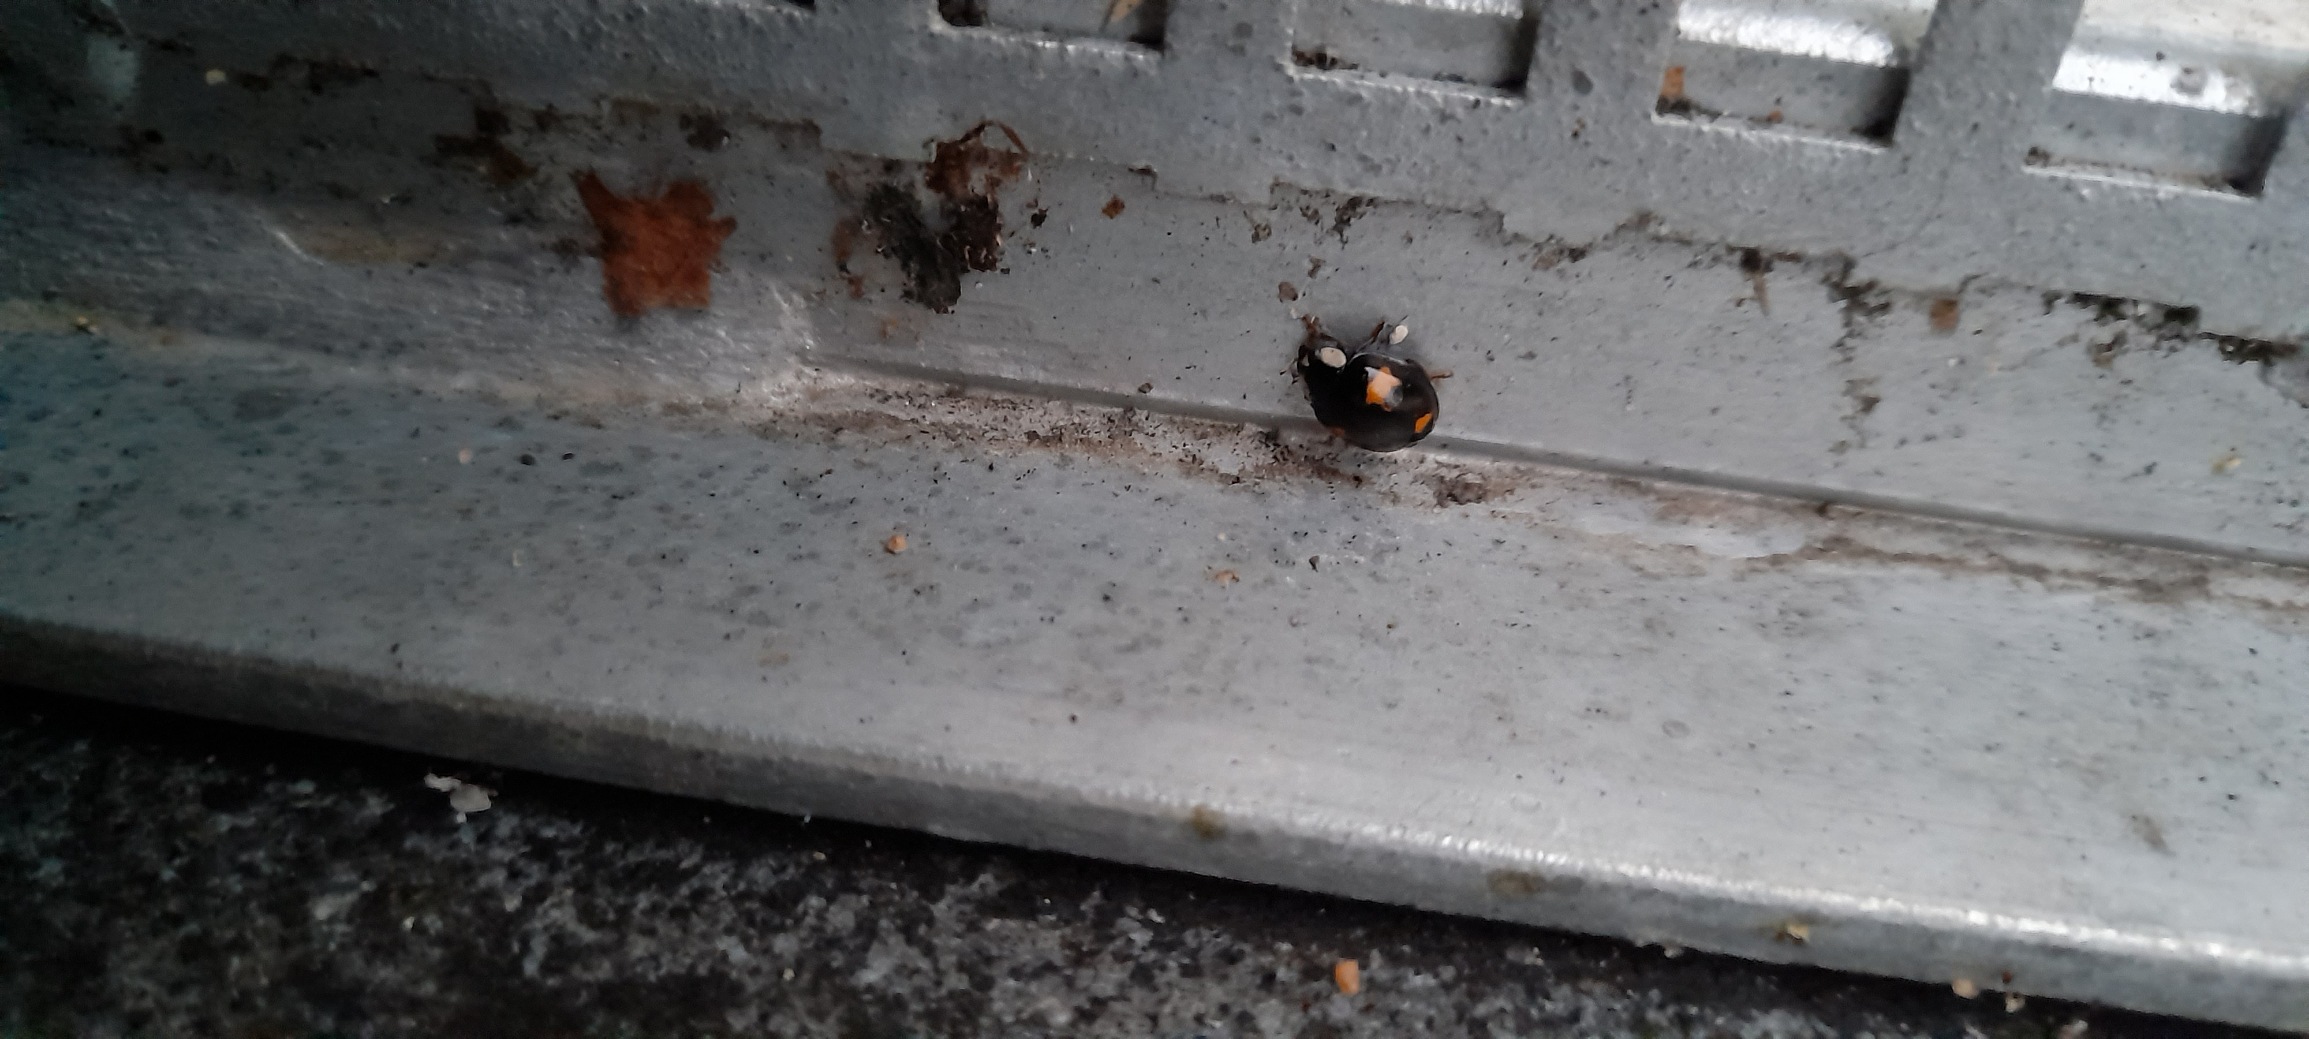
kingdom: Animalia
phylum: Arthropoda
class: Insecta
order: Coleoptera
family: Coccinellidae
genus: Harmonia
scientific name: Harmonia axyridis
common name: Harlekinmariehøne
